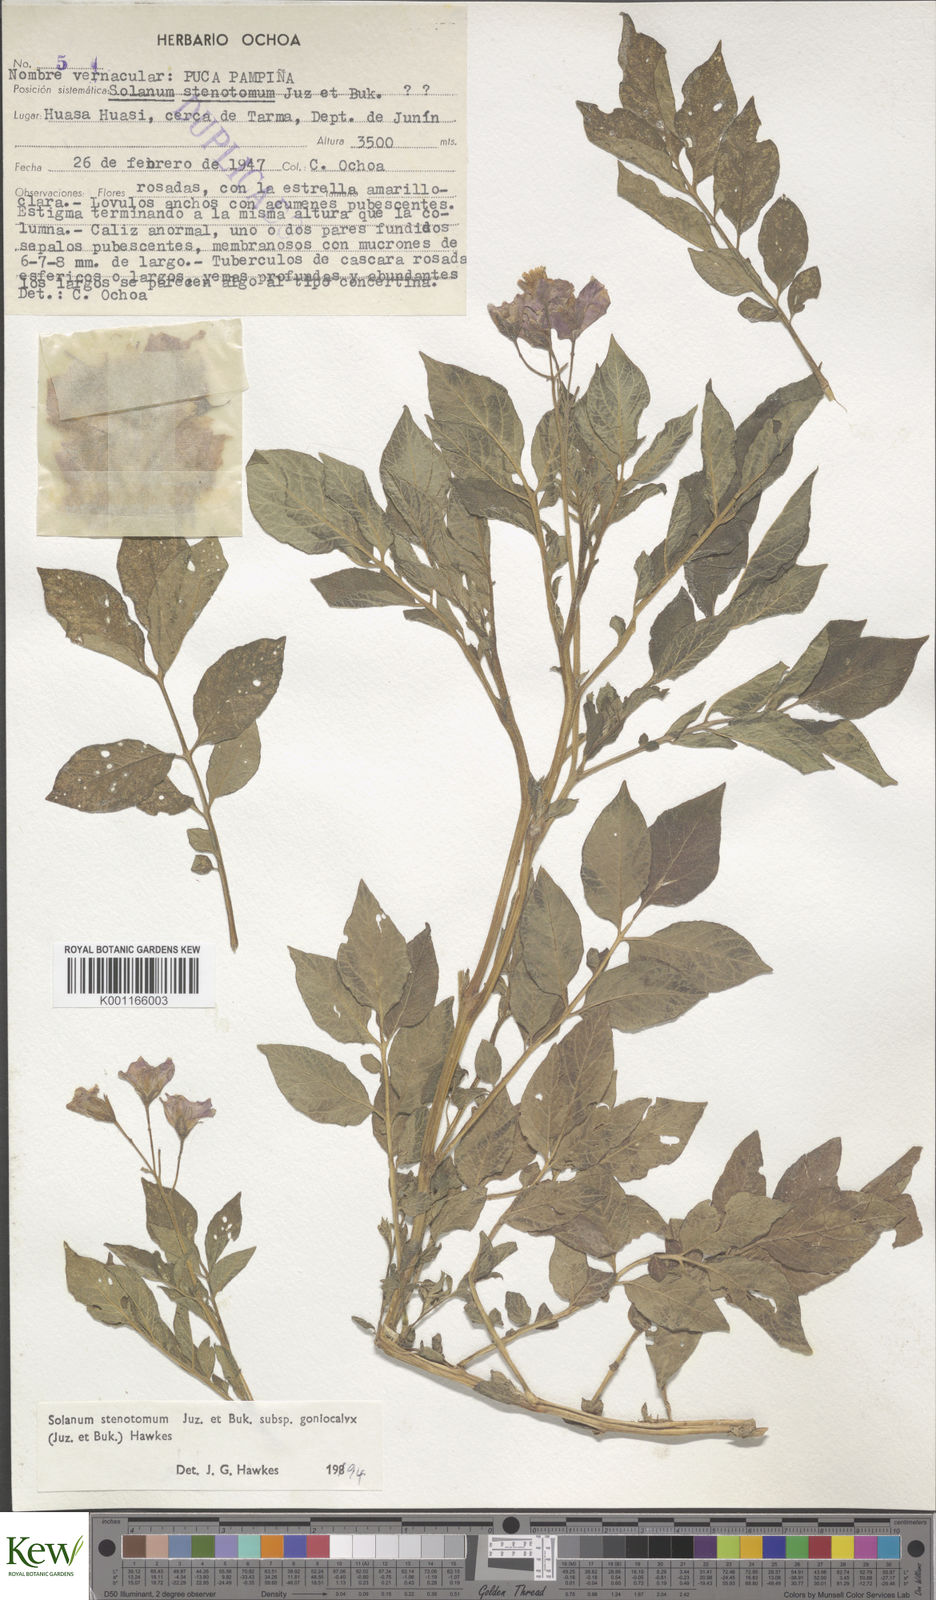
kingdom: Plantae
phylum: Tracheophyta
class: Magnoliopsida
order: Solanales
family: Solanaceae
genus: Solanum
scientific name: Solanum tuberosum
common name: Potato
